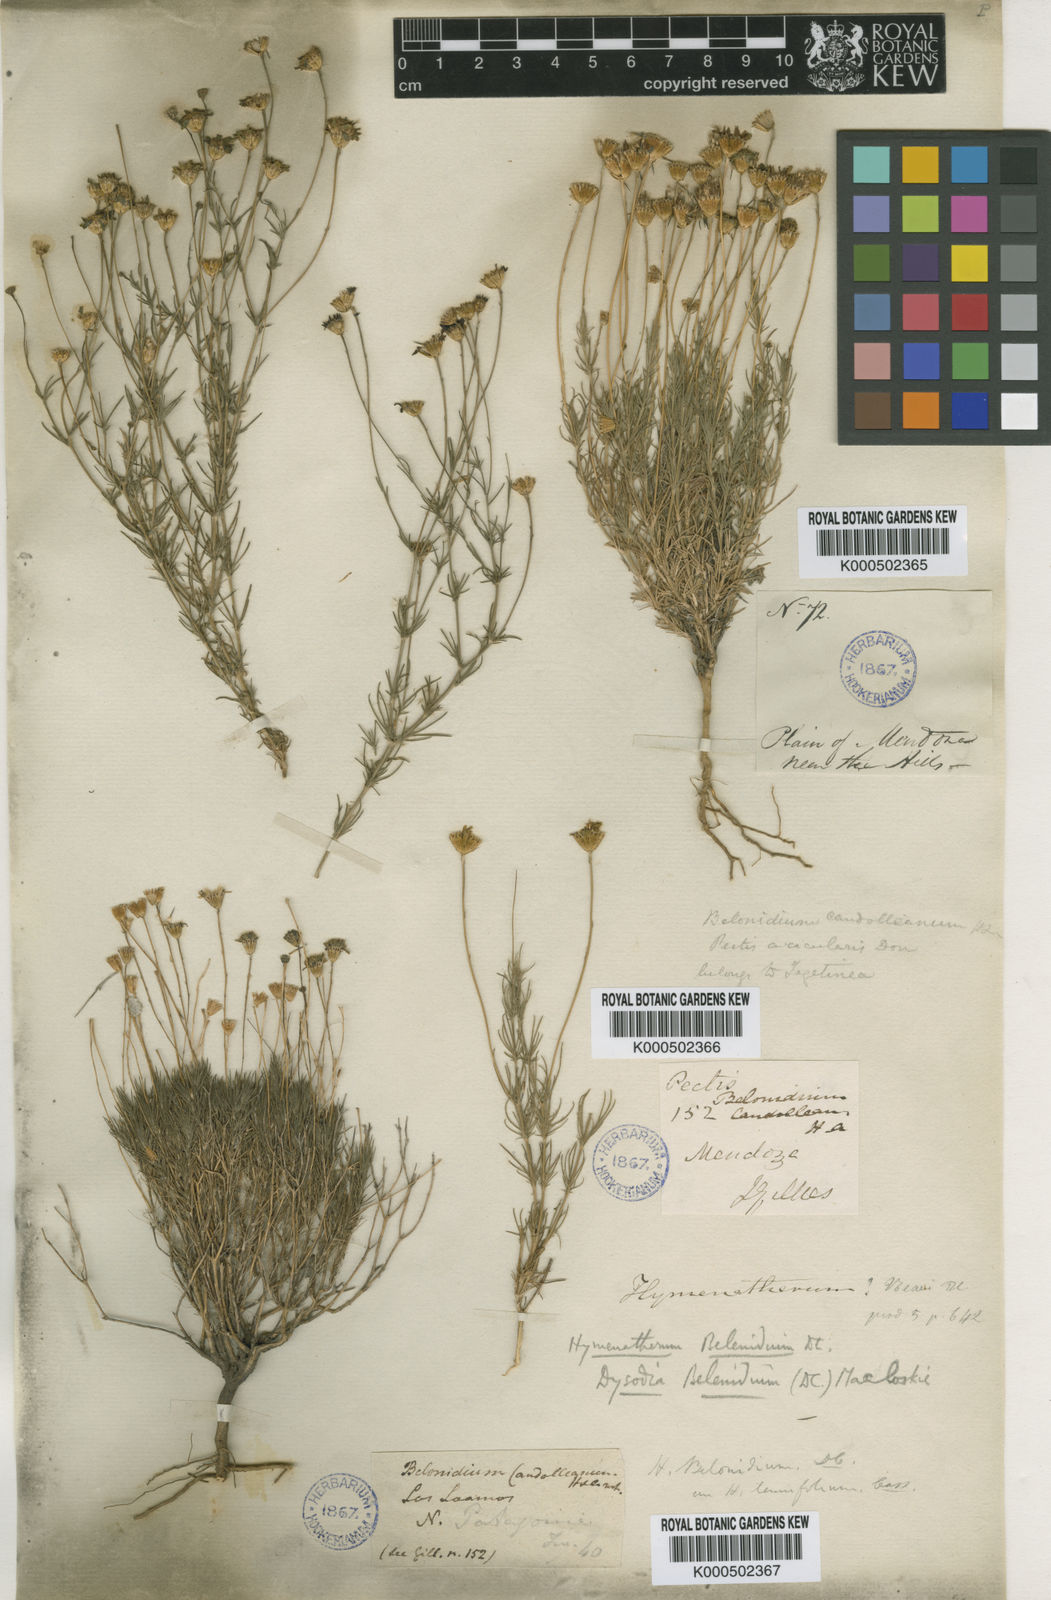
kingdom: Plantae
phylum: Tracheophyta
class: Magnoliopsida
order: Asterales
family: Asteraceae
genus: Thymophylla
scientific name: Thymophylla pentachaeta
